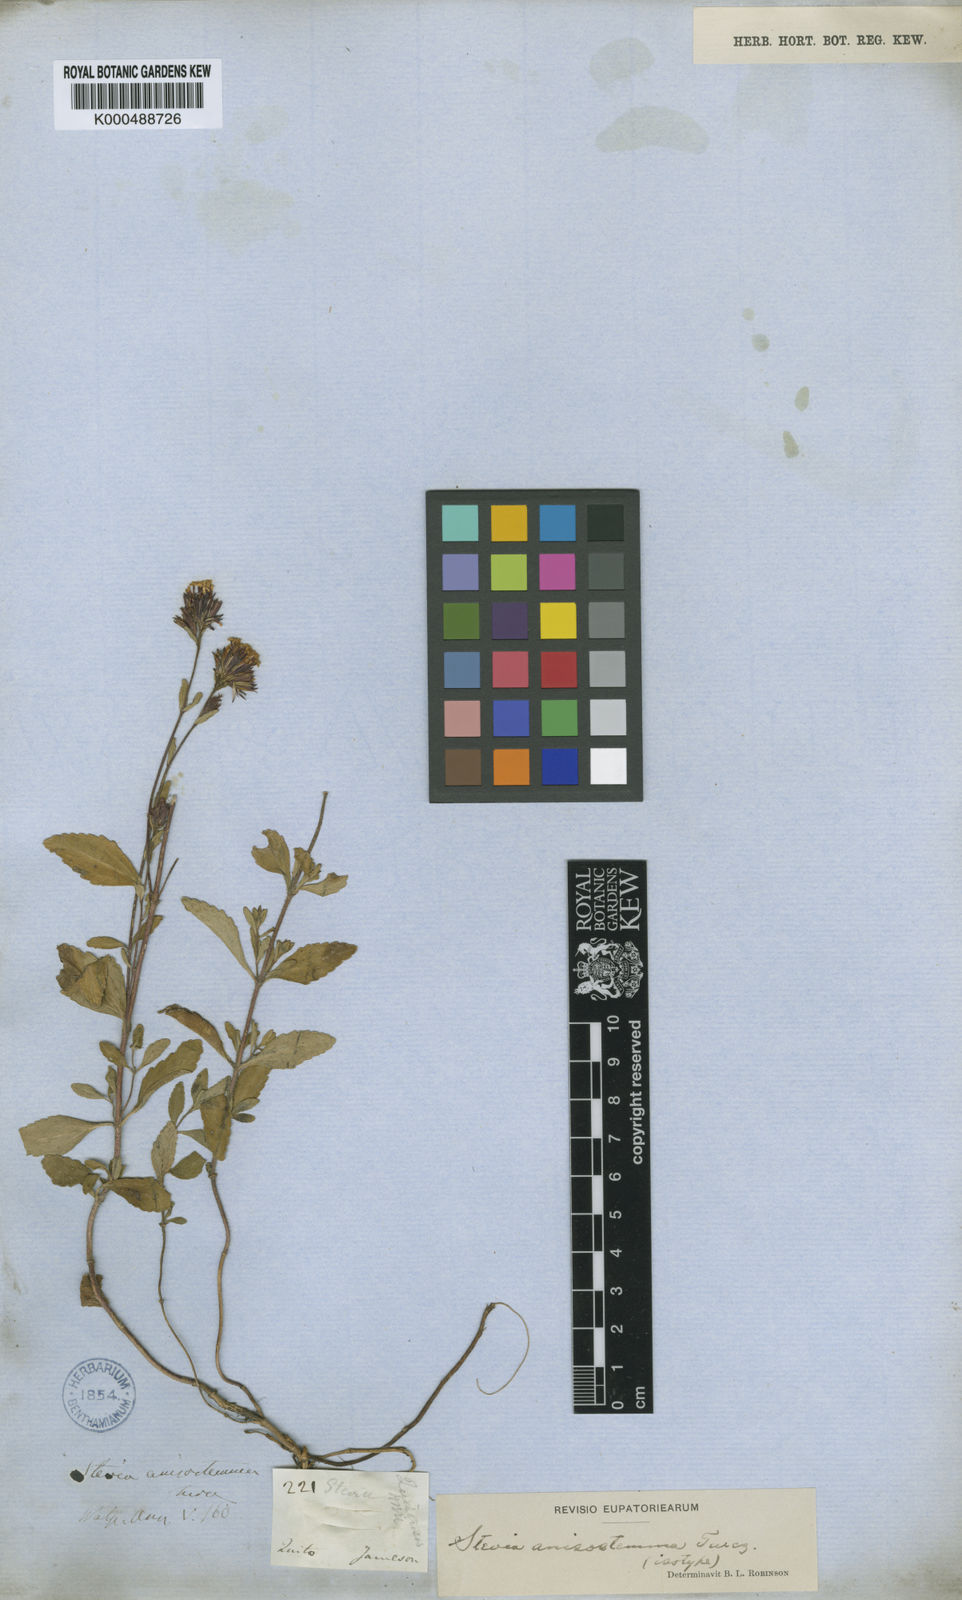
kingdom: Plantae
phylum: Tracheophyta
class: Magnoliopsida
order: Asterales
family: Asteraceae
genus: Stevia
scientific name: Stevia anisostemma
